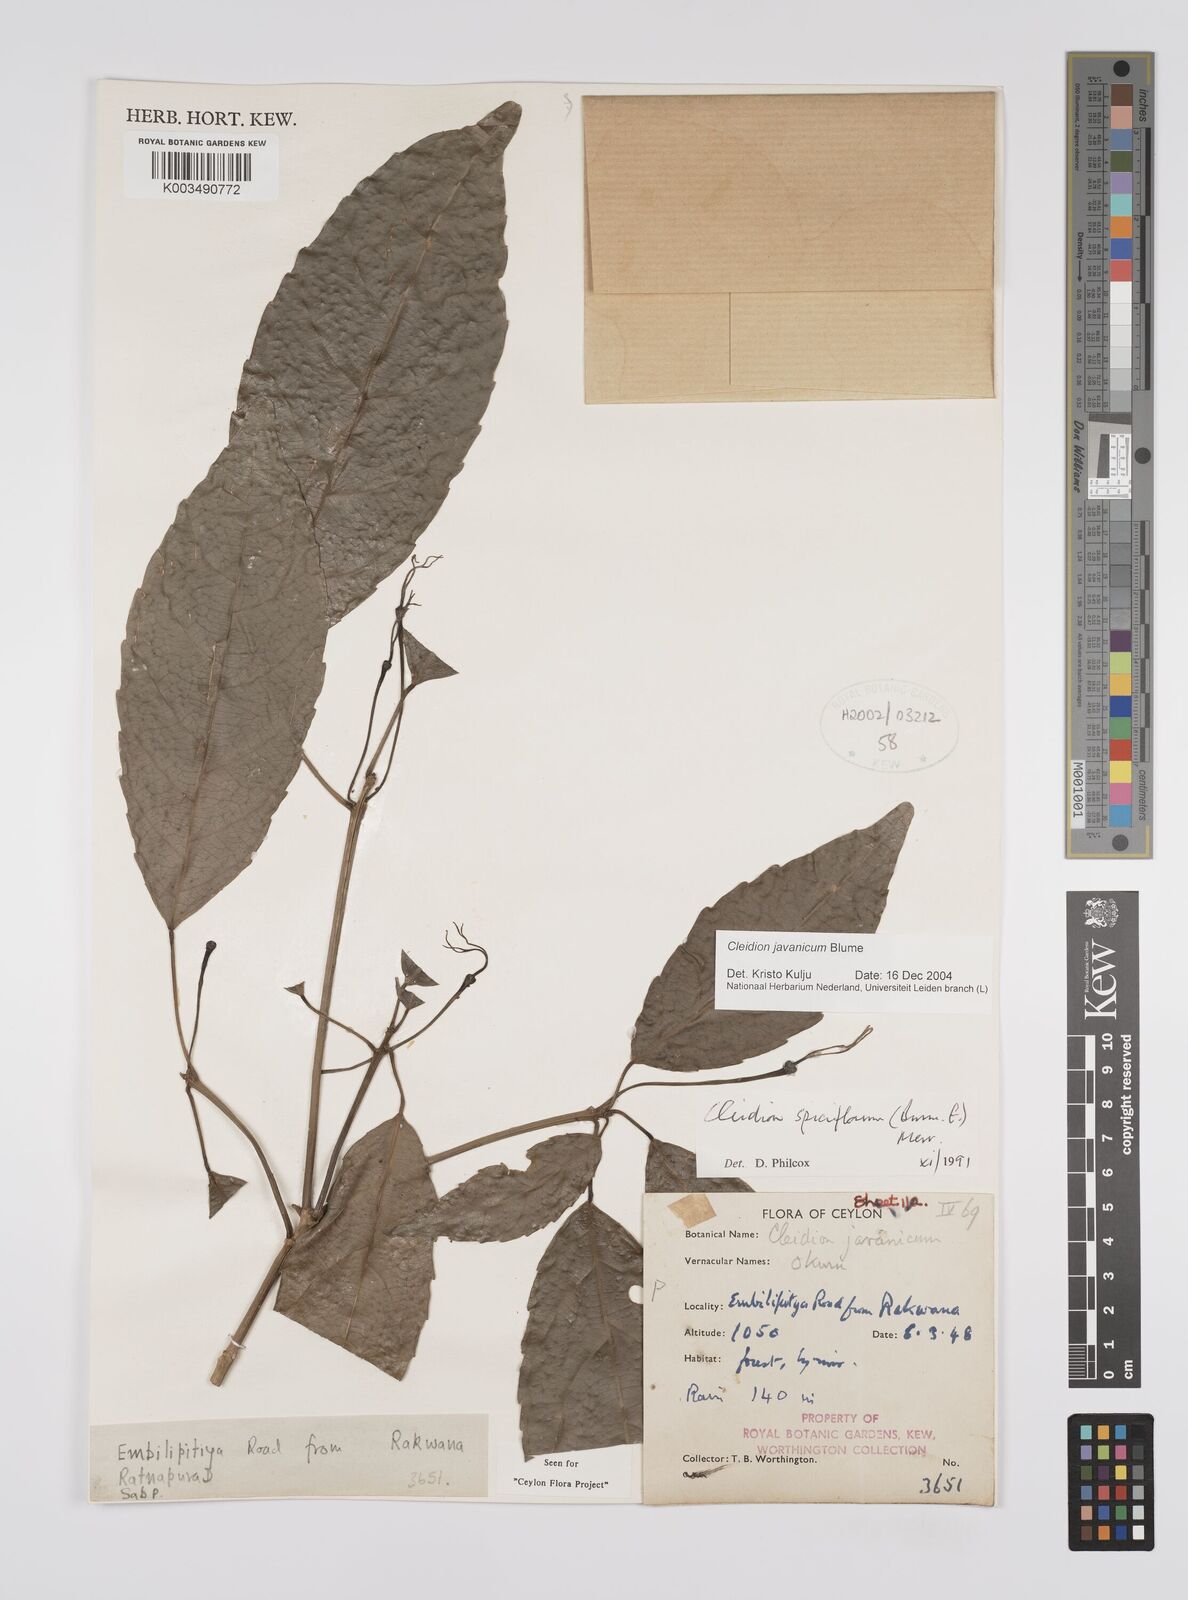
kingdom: Plantae
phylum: Tracheophyta
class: Magnoliopsida
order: Malpighiales
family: Euphorbiaceae
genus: Cleidion
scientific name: Cleidion javanicum
